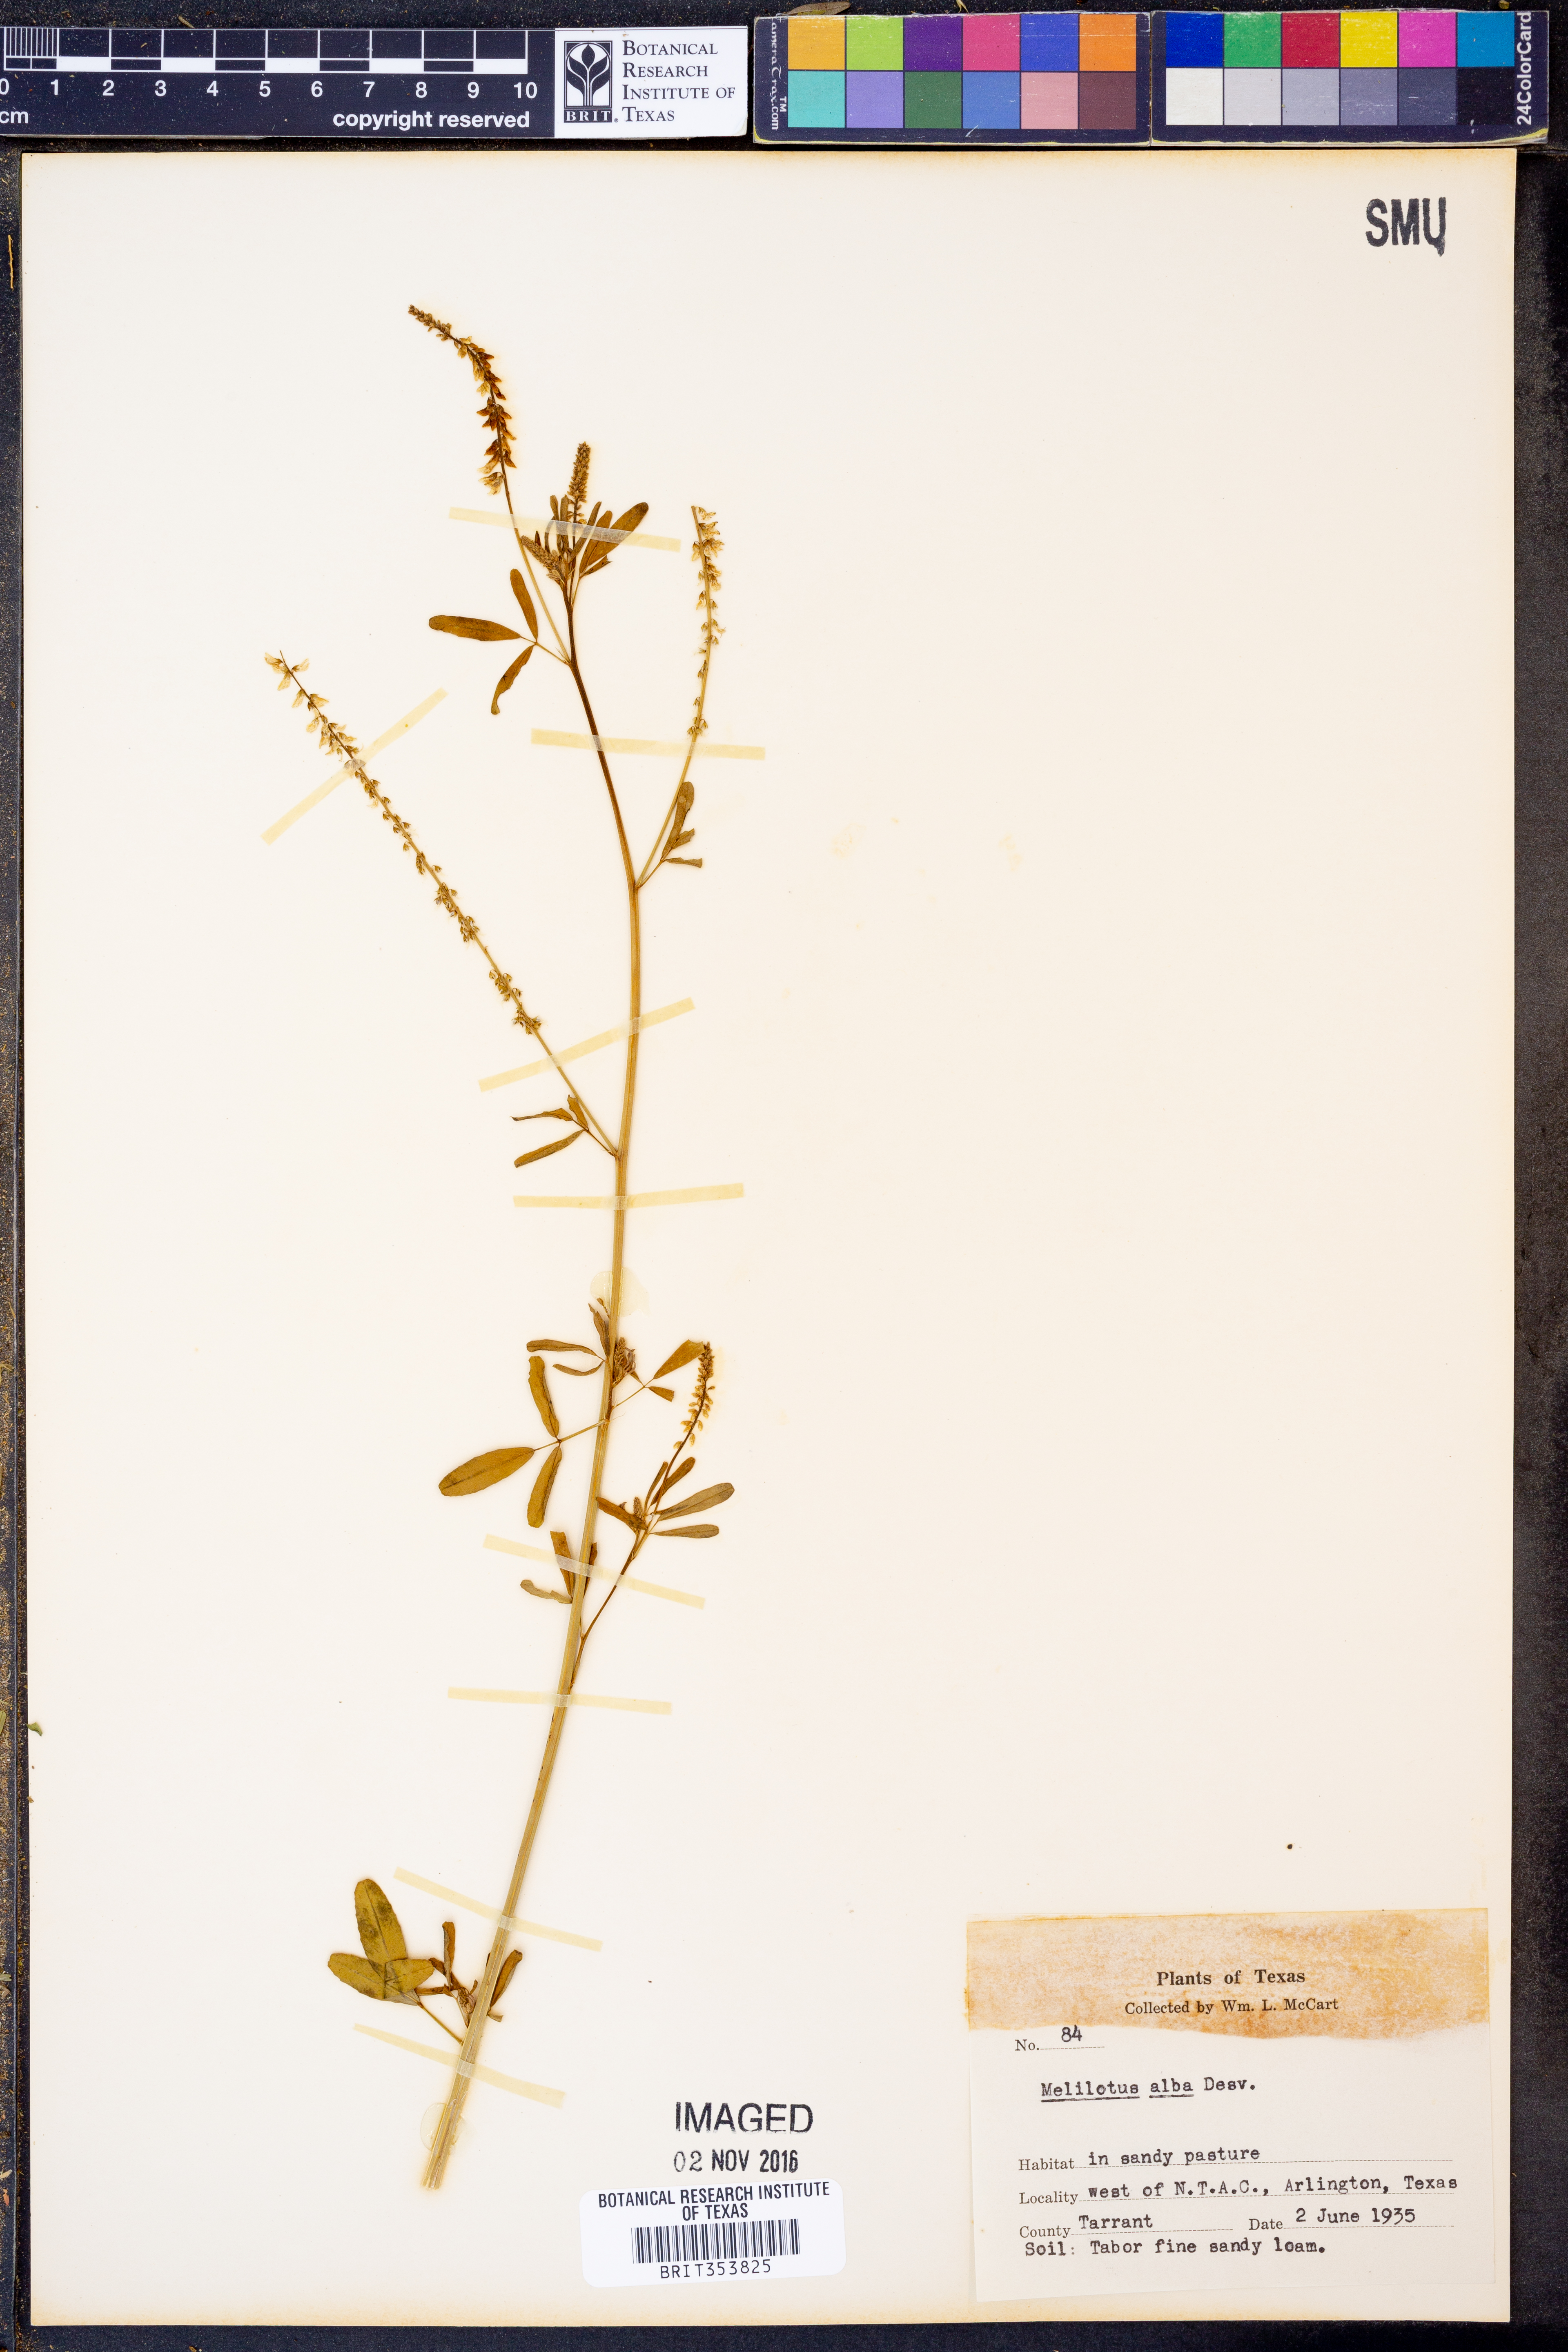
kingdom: Plantae
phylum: Tracheophyta
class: Magnoliopsida
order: Fabales
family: Fabaceae
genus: Melilotus
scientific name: Melilotus albus
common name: White melilot
